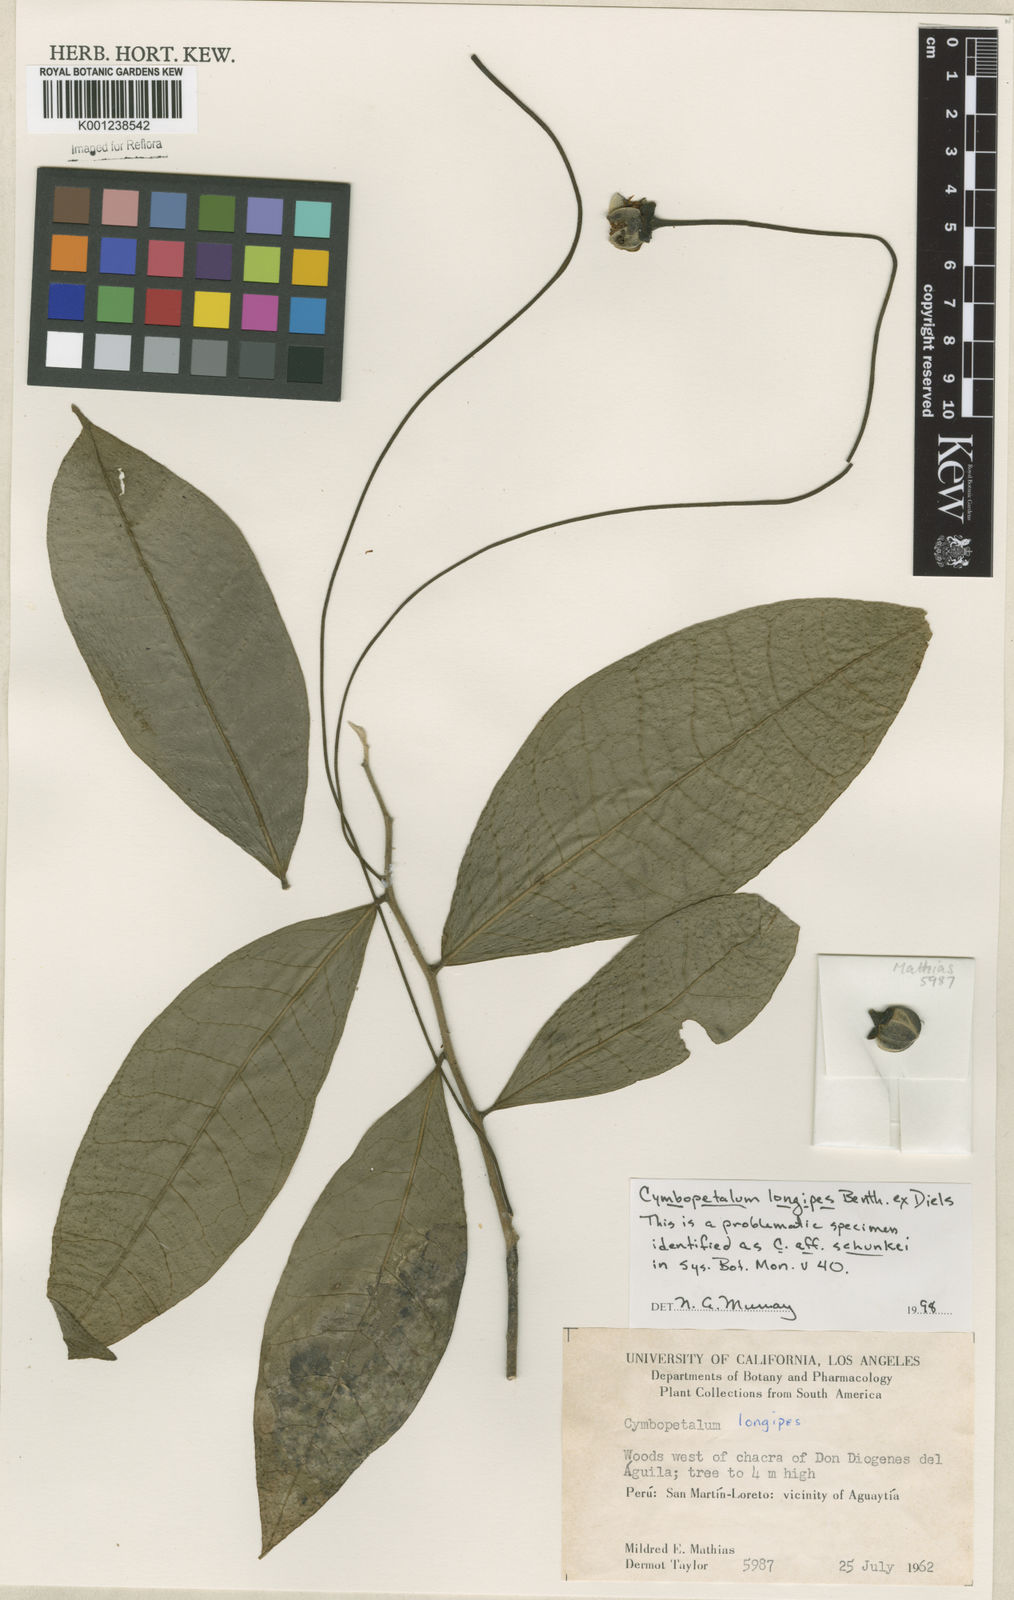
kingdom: Plantae
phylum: Tracheophyta
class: Magnoliopsida
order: Magnoliales
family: Annonaceae
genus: Cymbopetalum
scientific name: Cymbopetalum longipes
